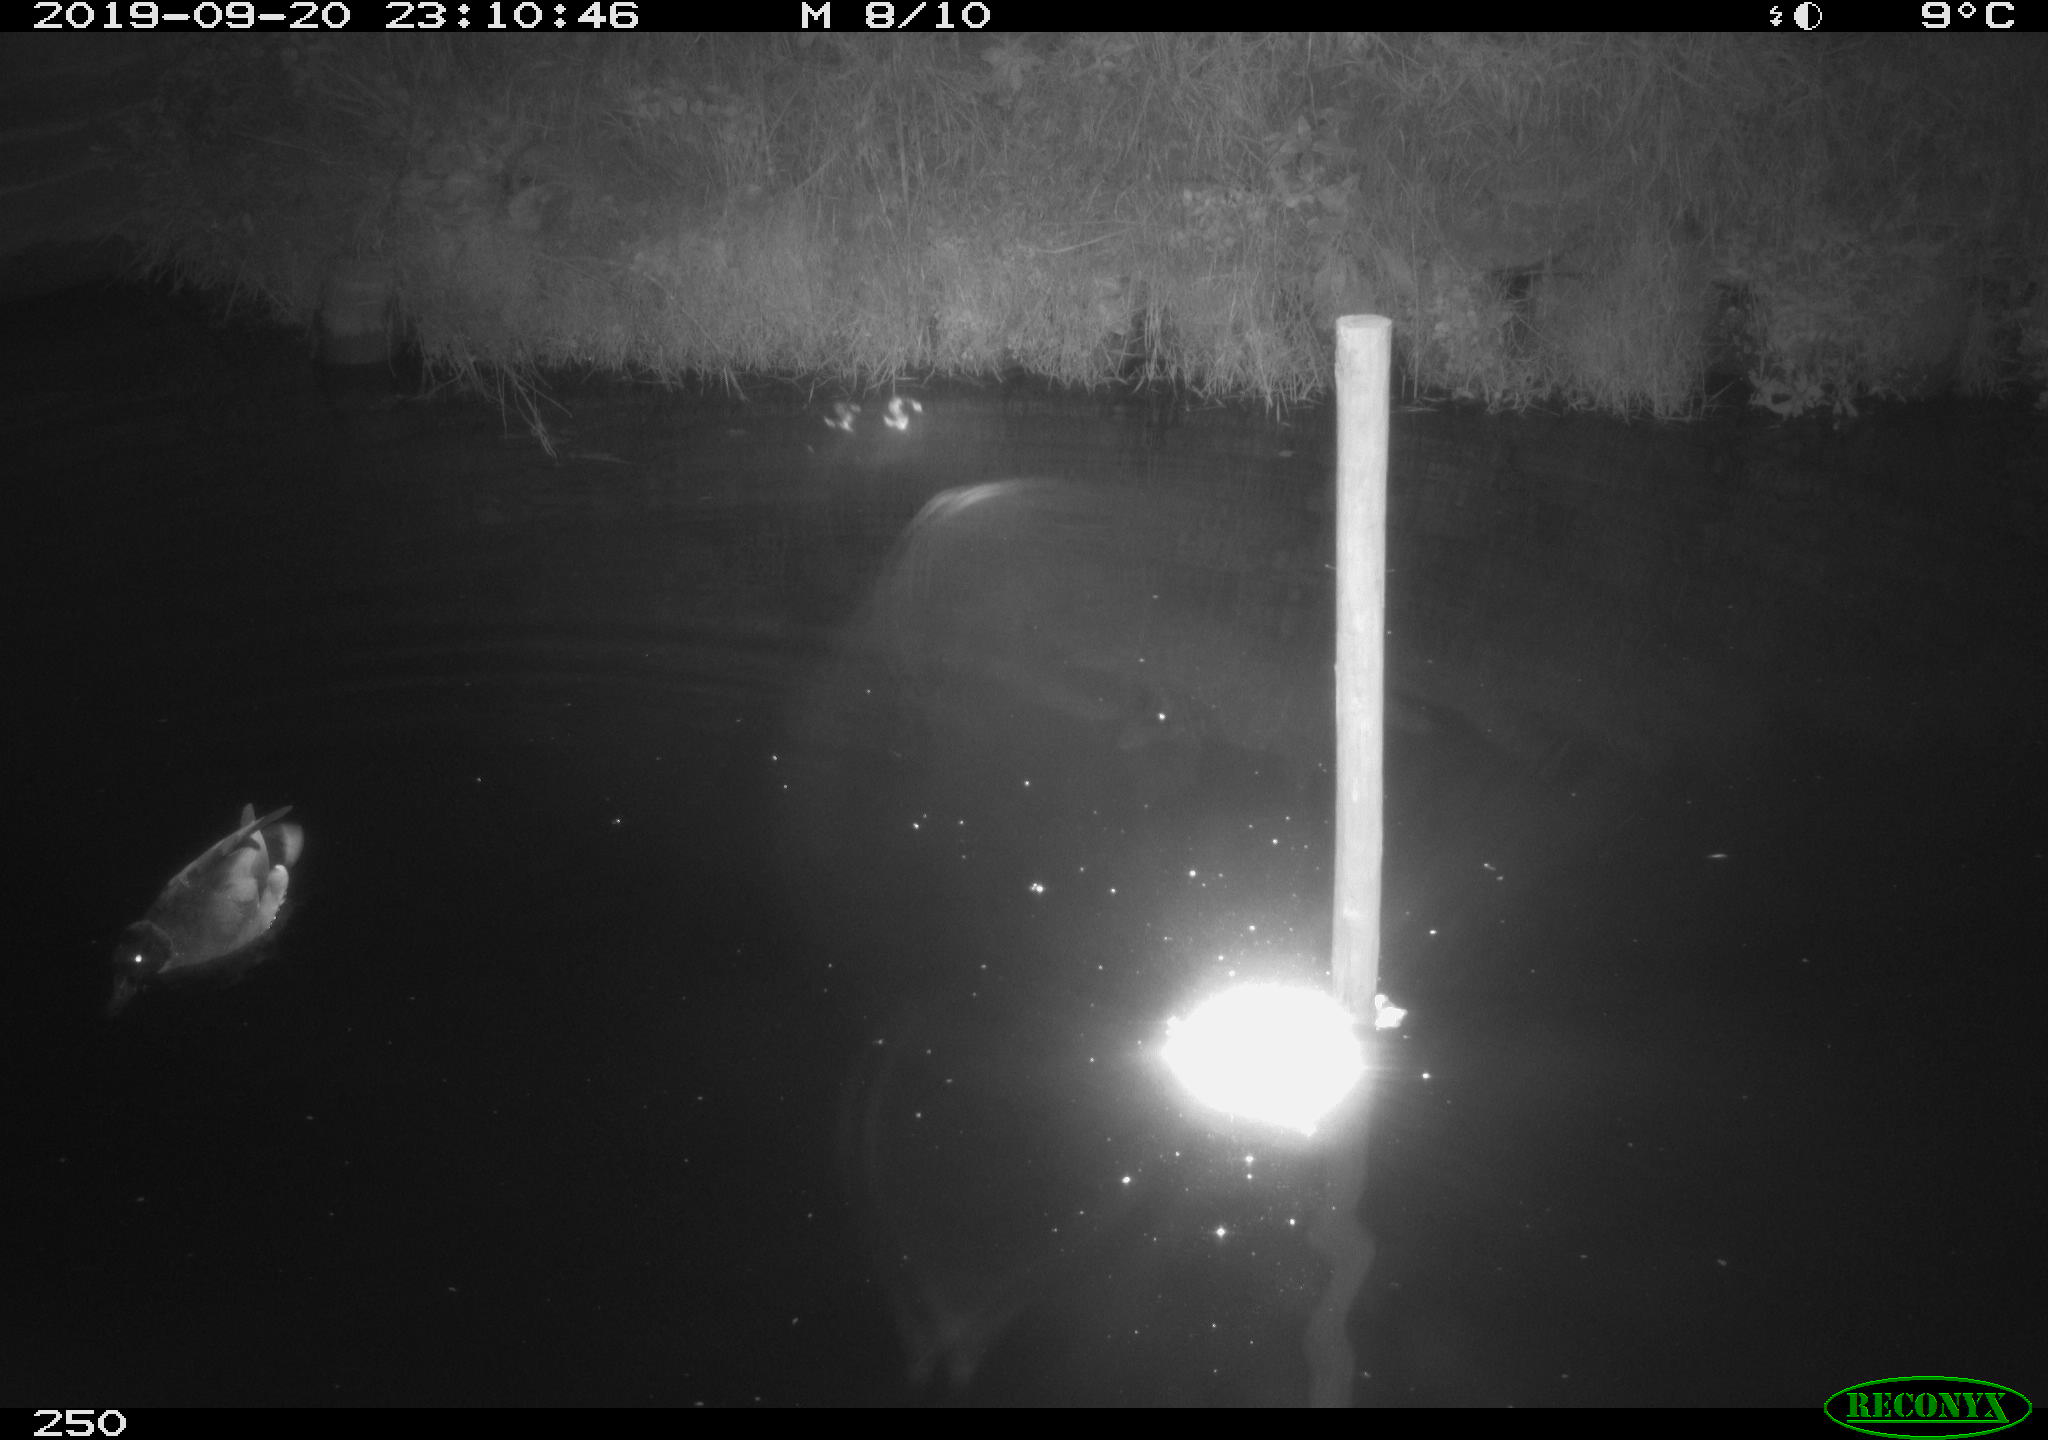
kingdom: Animalia
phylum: Chordata
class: Aves
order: Anseriformes
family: Anatidae
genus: Anas
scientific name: Anas platyrhynchos
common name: Mallard
